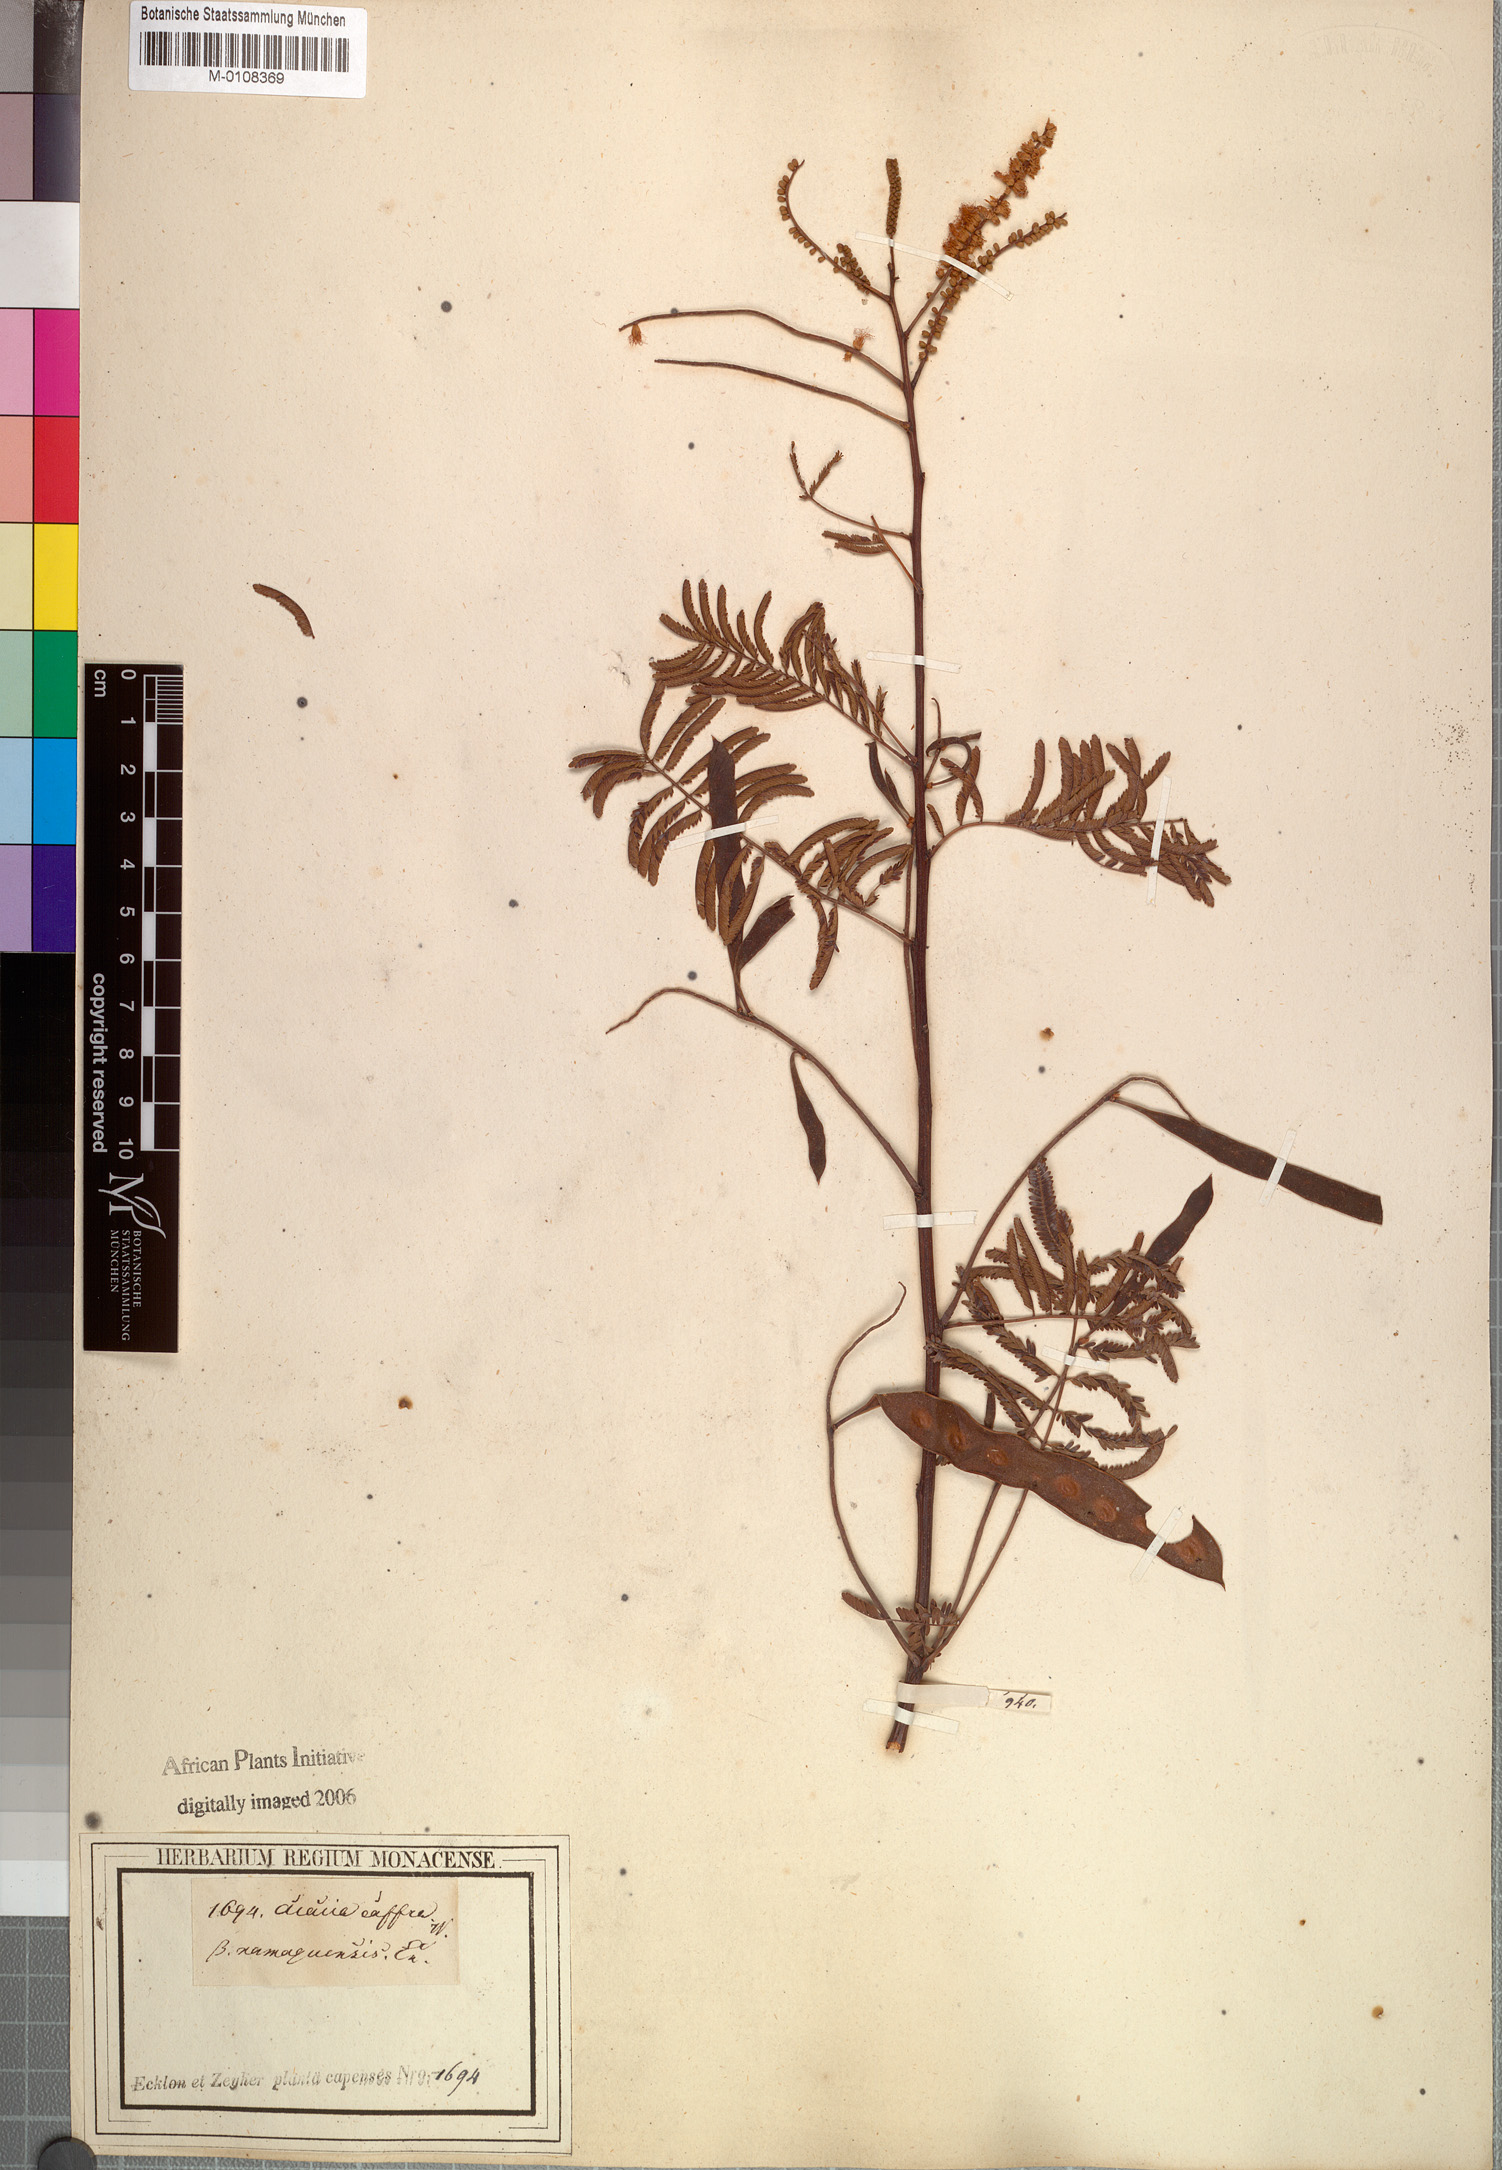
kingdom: Plantae
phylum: Tracheophyta
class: Magnoliopsida
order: Fabales
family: Fabaceae
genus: Senegalia
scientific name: Senegalia caffra
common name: Cat thorn
